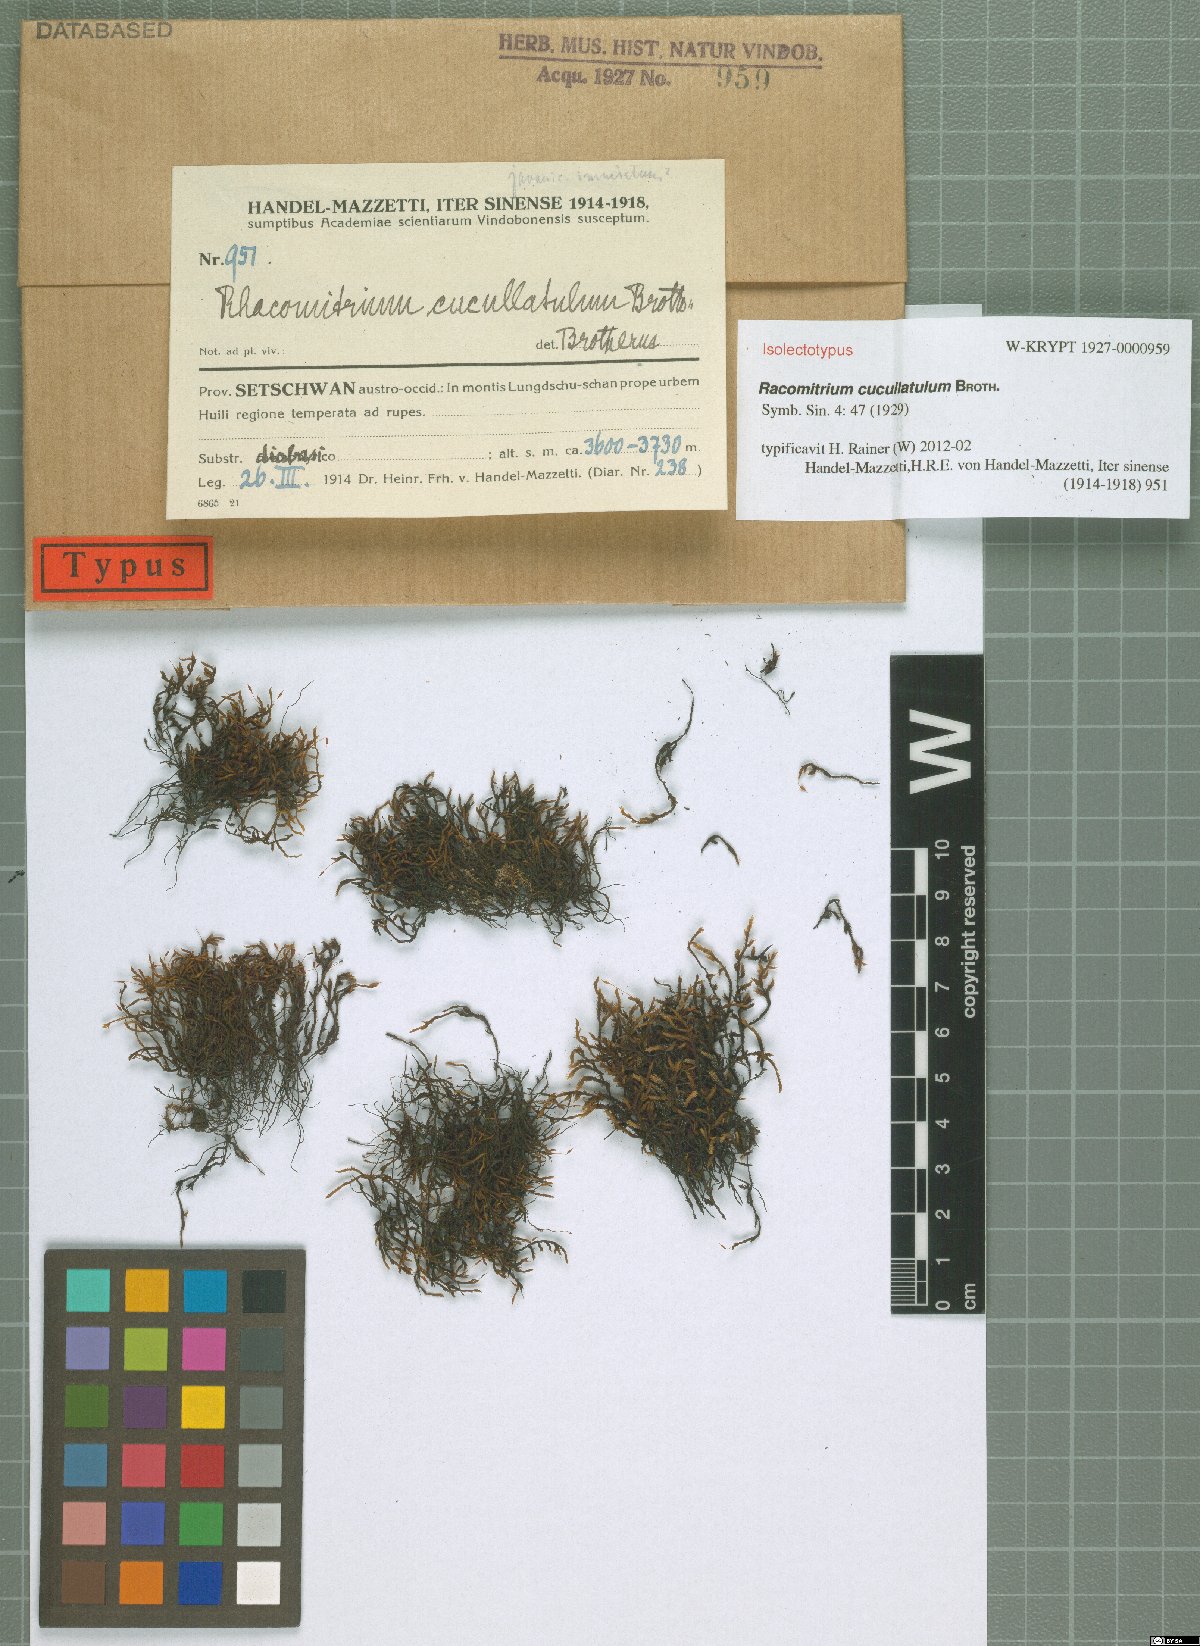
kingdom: Plantae
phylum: Bryophyta
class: Bryopsida
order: Grimmiales
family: Grimmiaceae
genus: Bucklandiella
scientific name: Bucklandiella cucullatula
